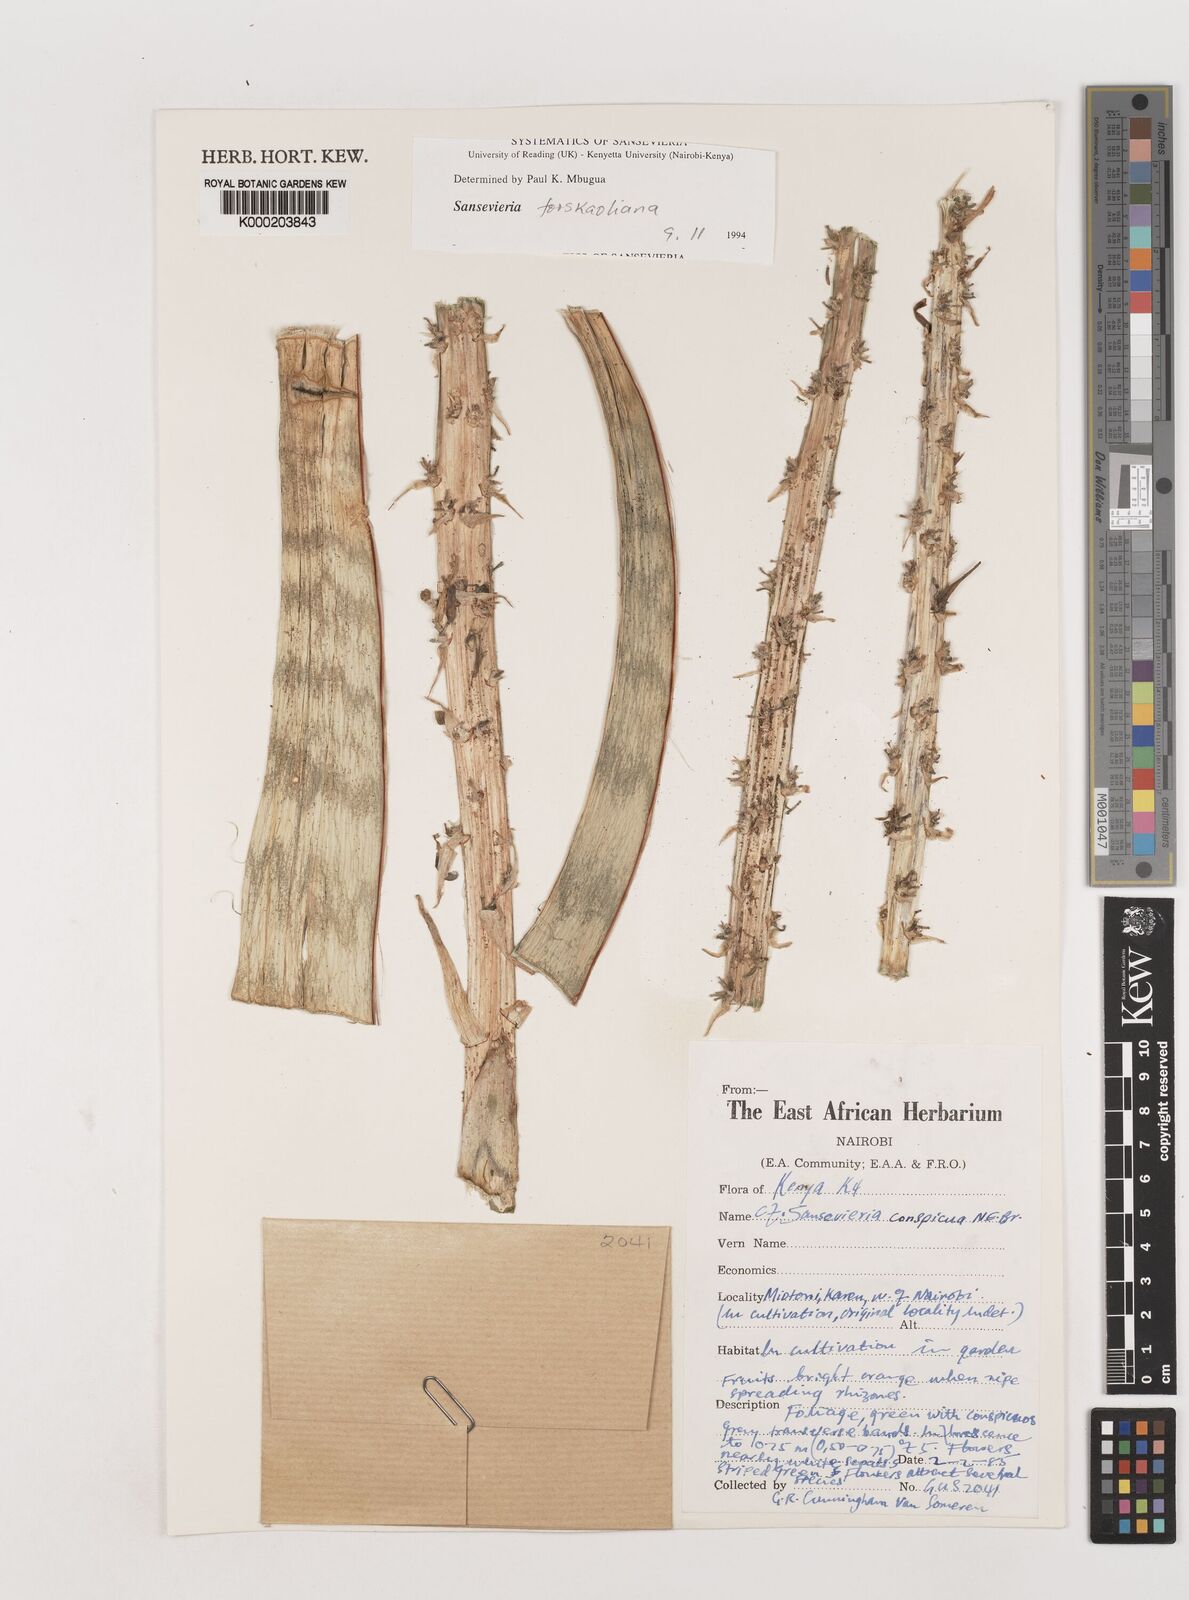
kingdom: Plantae
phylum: Tracheophyta
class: Liliopsida
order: Asparagales
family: Asparagaceae
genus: Dracaena
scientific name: Dracaena conspicua
